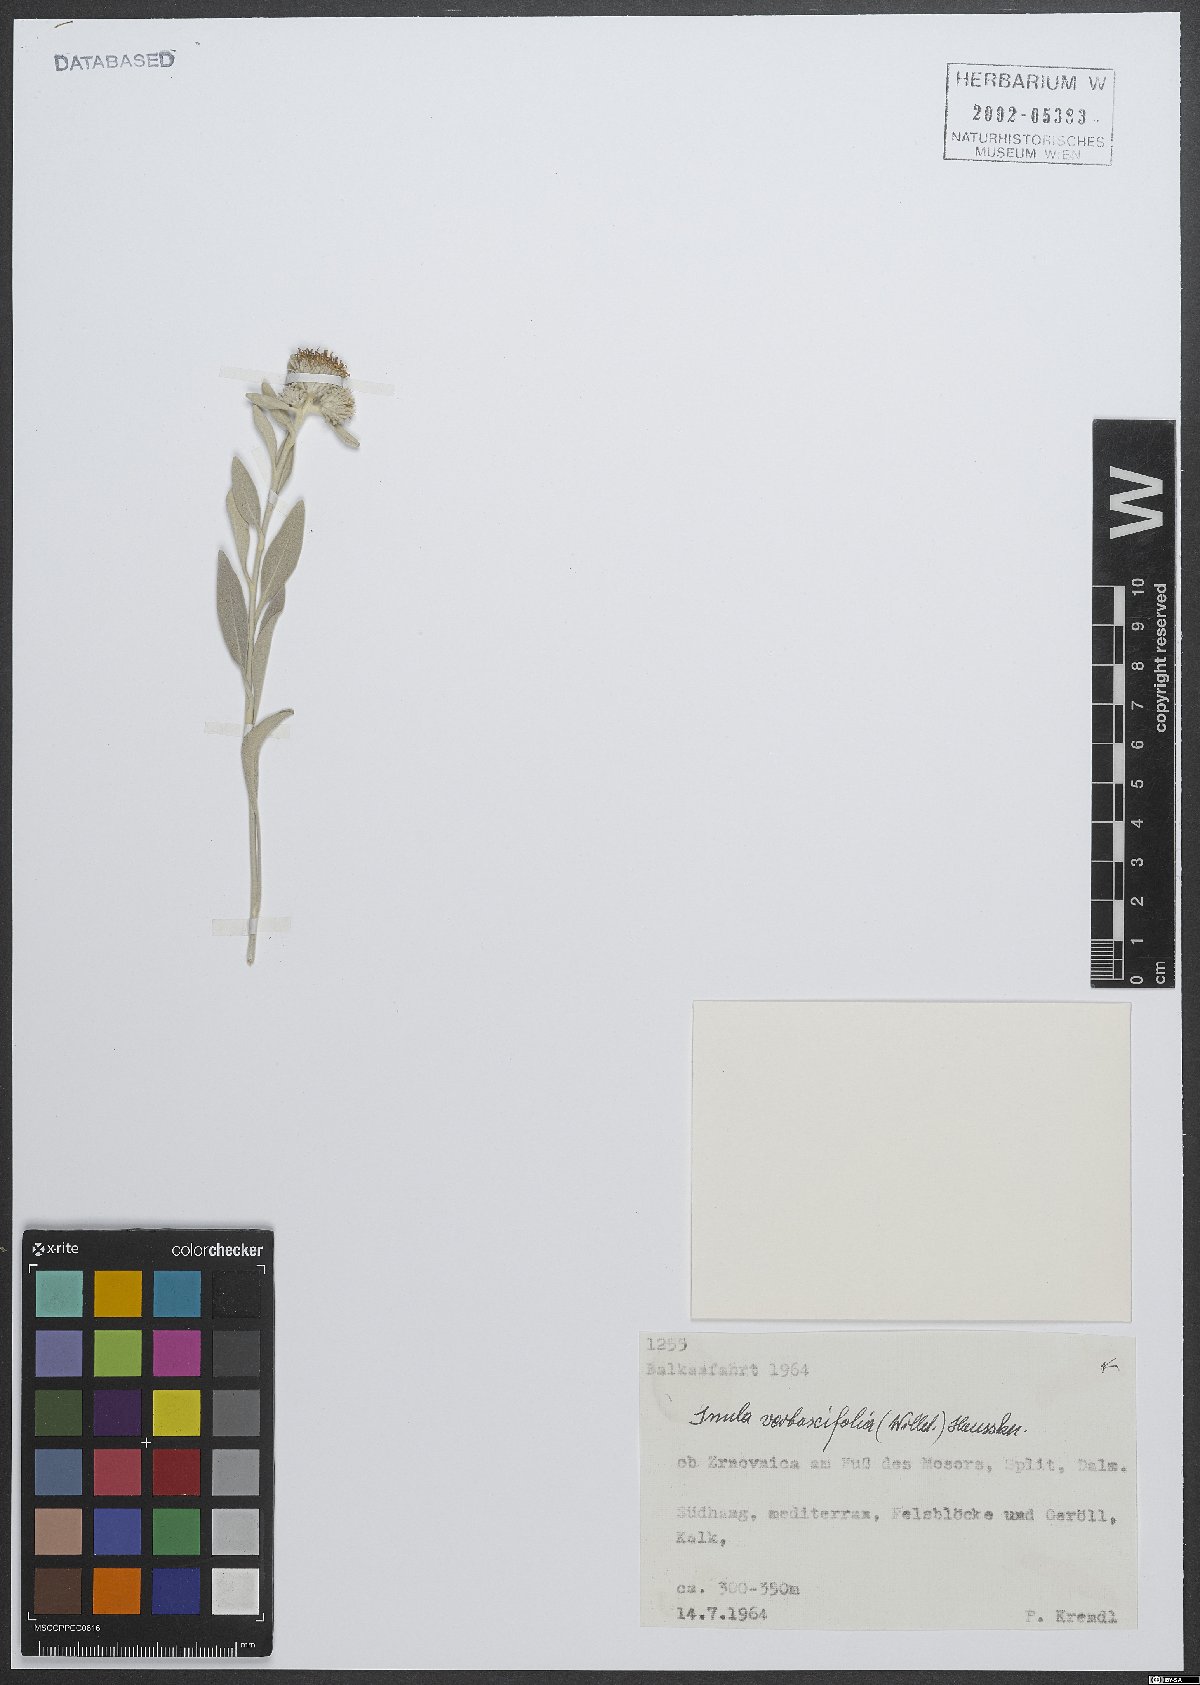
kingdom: Plantae
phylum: Tracheophyta
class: Magnoliopsida
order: Asterales
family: Asteraceae
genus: Pentanema
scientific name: Pentanema verbascifolium
